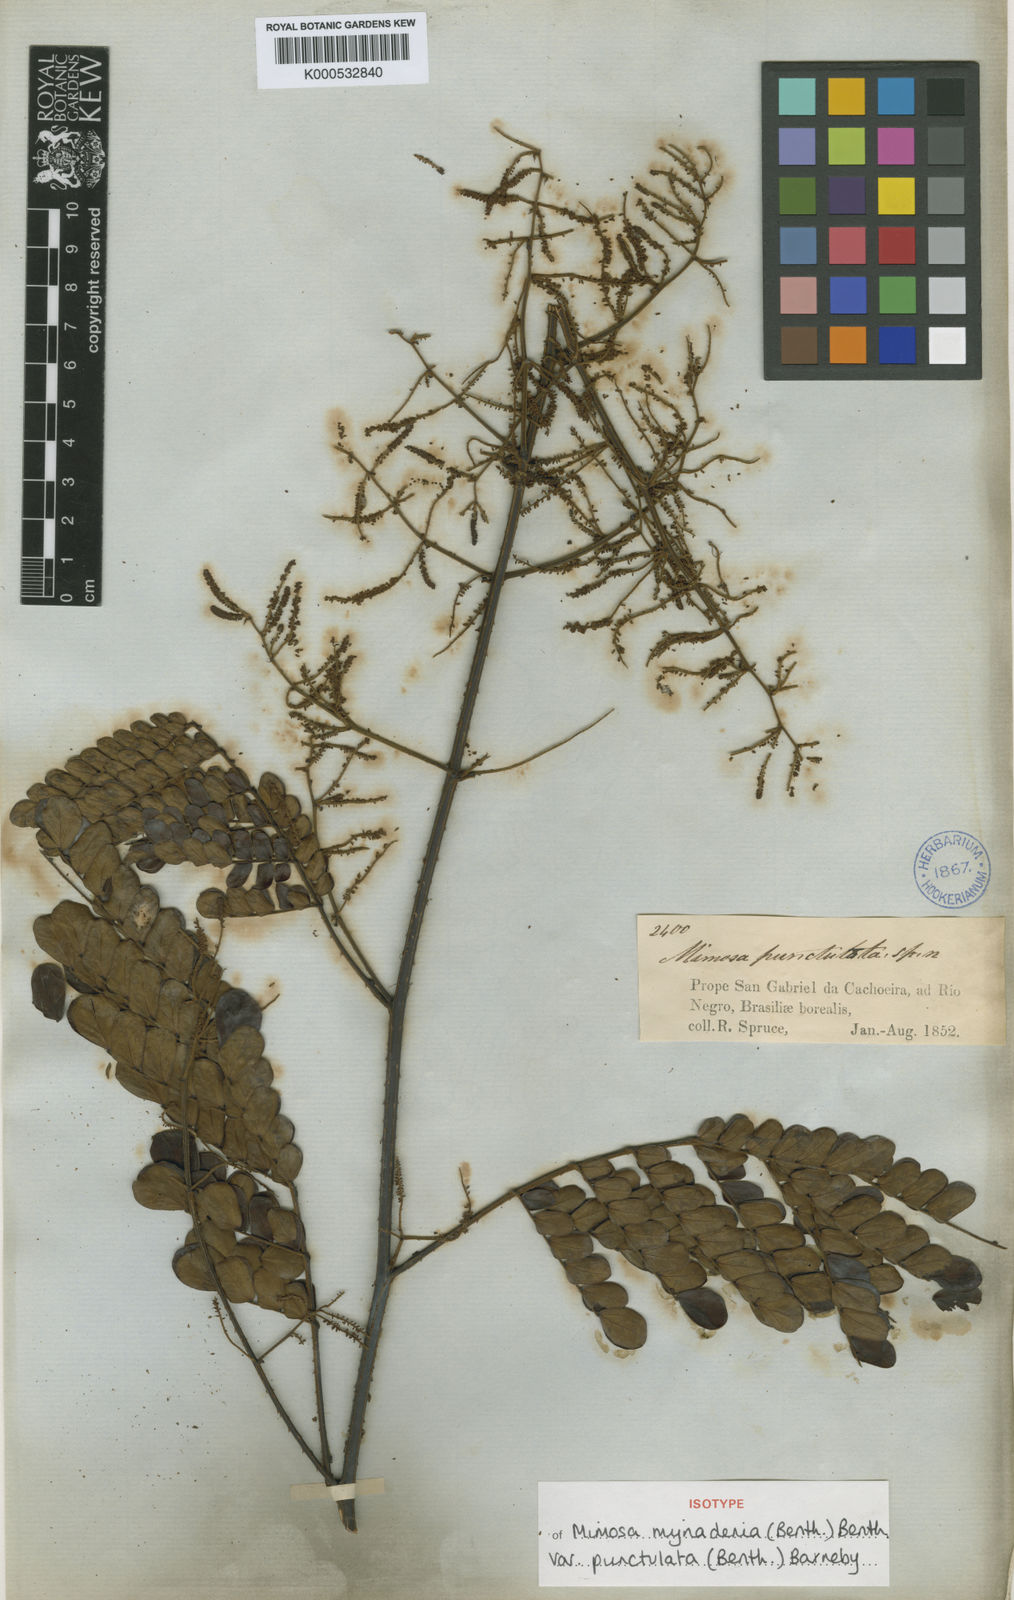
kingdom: Plantae
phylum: Tracheophyta
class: Magnoliopsida
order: Fabales
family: Fabaceae
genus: Mimosa
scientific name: Mimosa myriadenia
